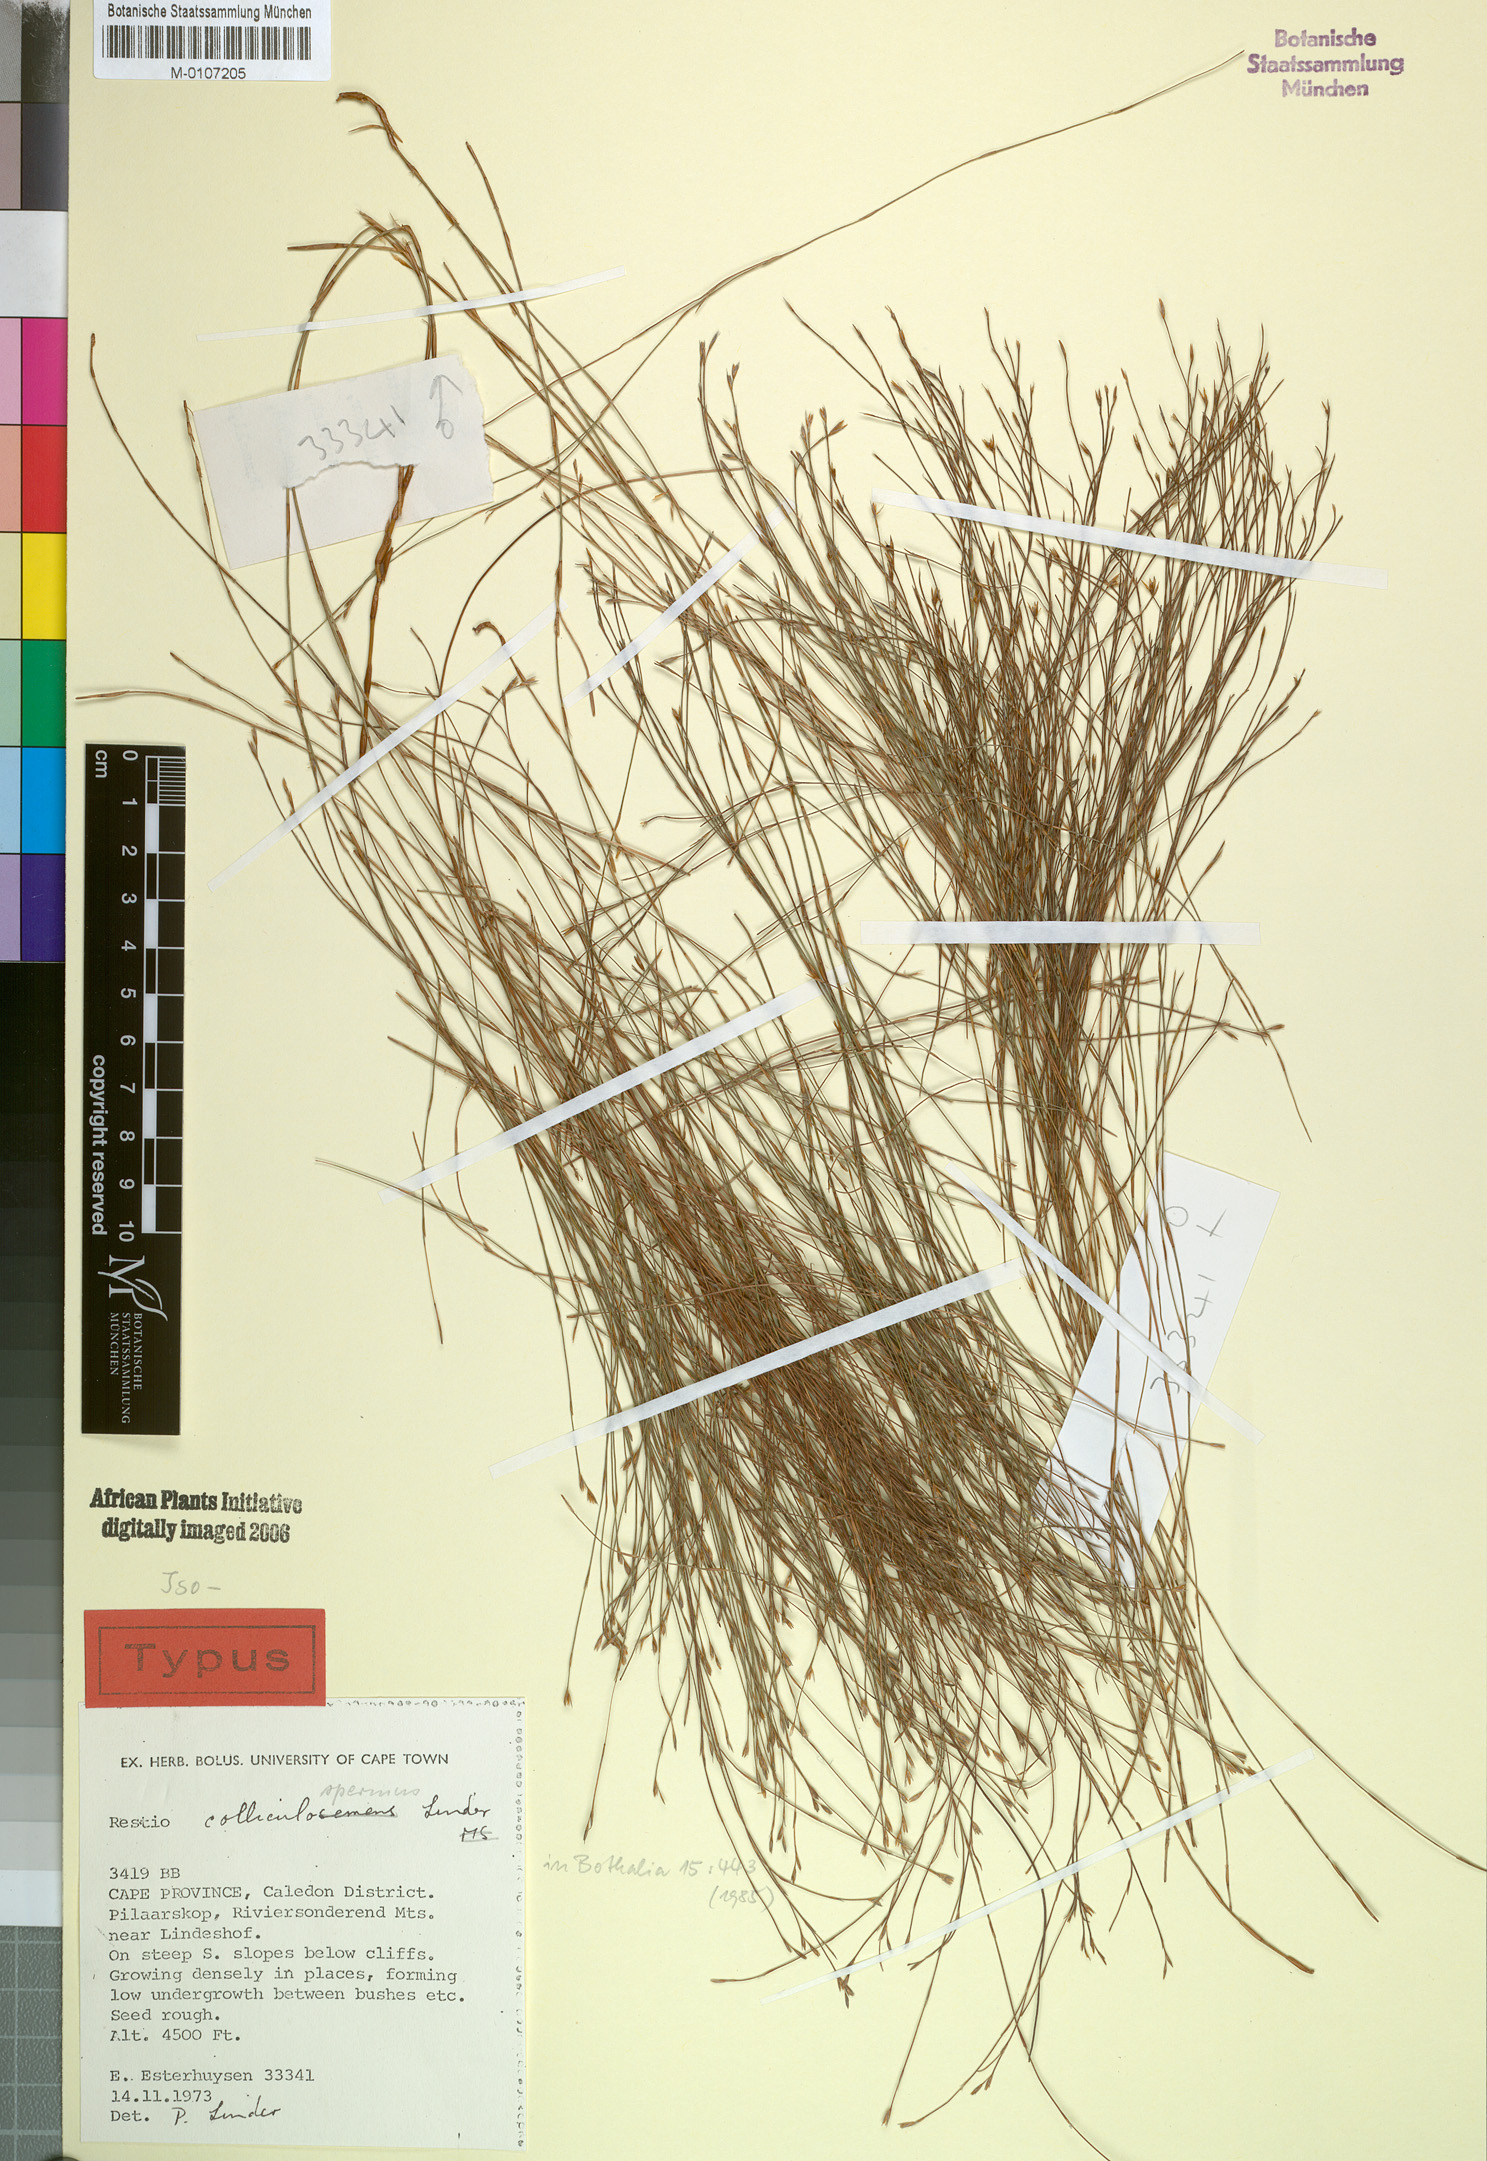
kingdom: Plantae
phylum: Tracheophyta
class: Liliopsida
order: Poales
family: Restionaceae
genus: Restio
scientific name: Restio colliculospermus
